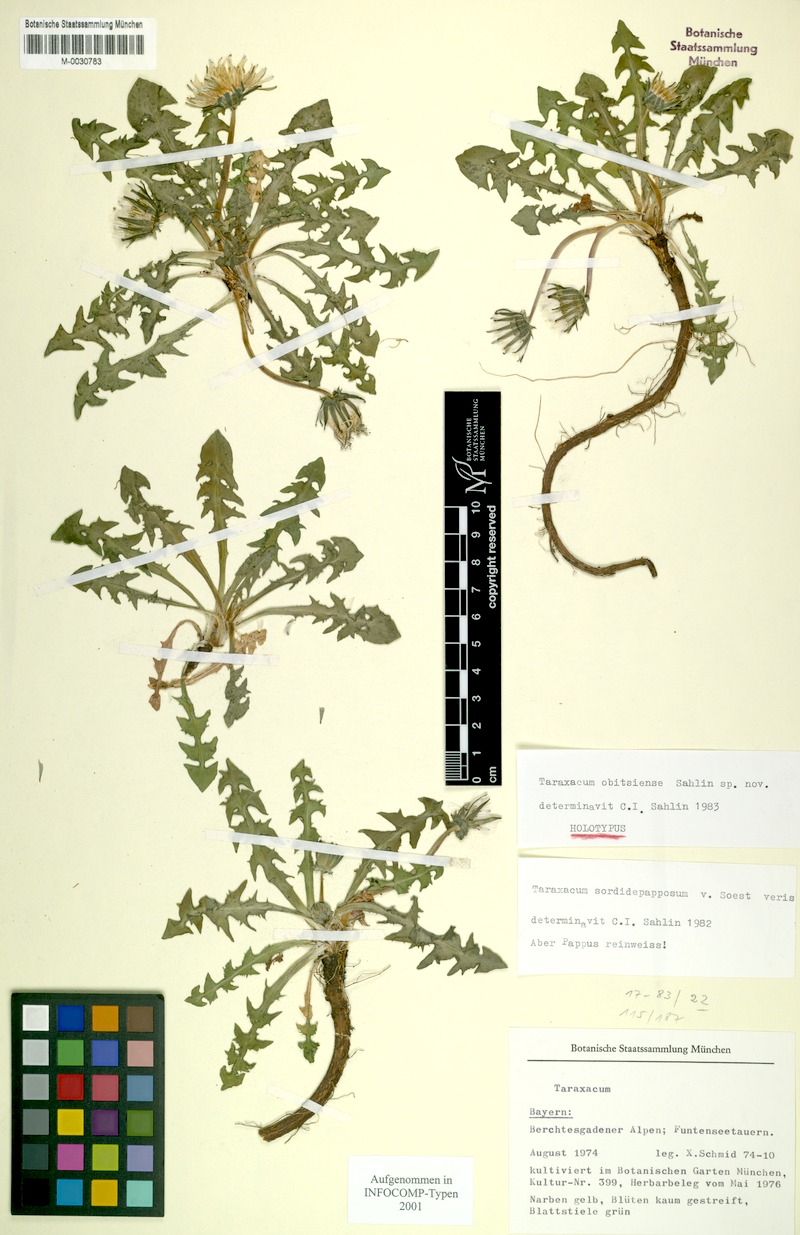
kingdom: Plantae
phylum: Tracheophyta
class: Magnoliopsida
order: Asterales
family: Asteraceae
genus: Taraxacum
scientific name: Taraxacum obitsiense
